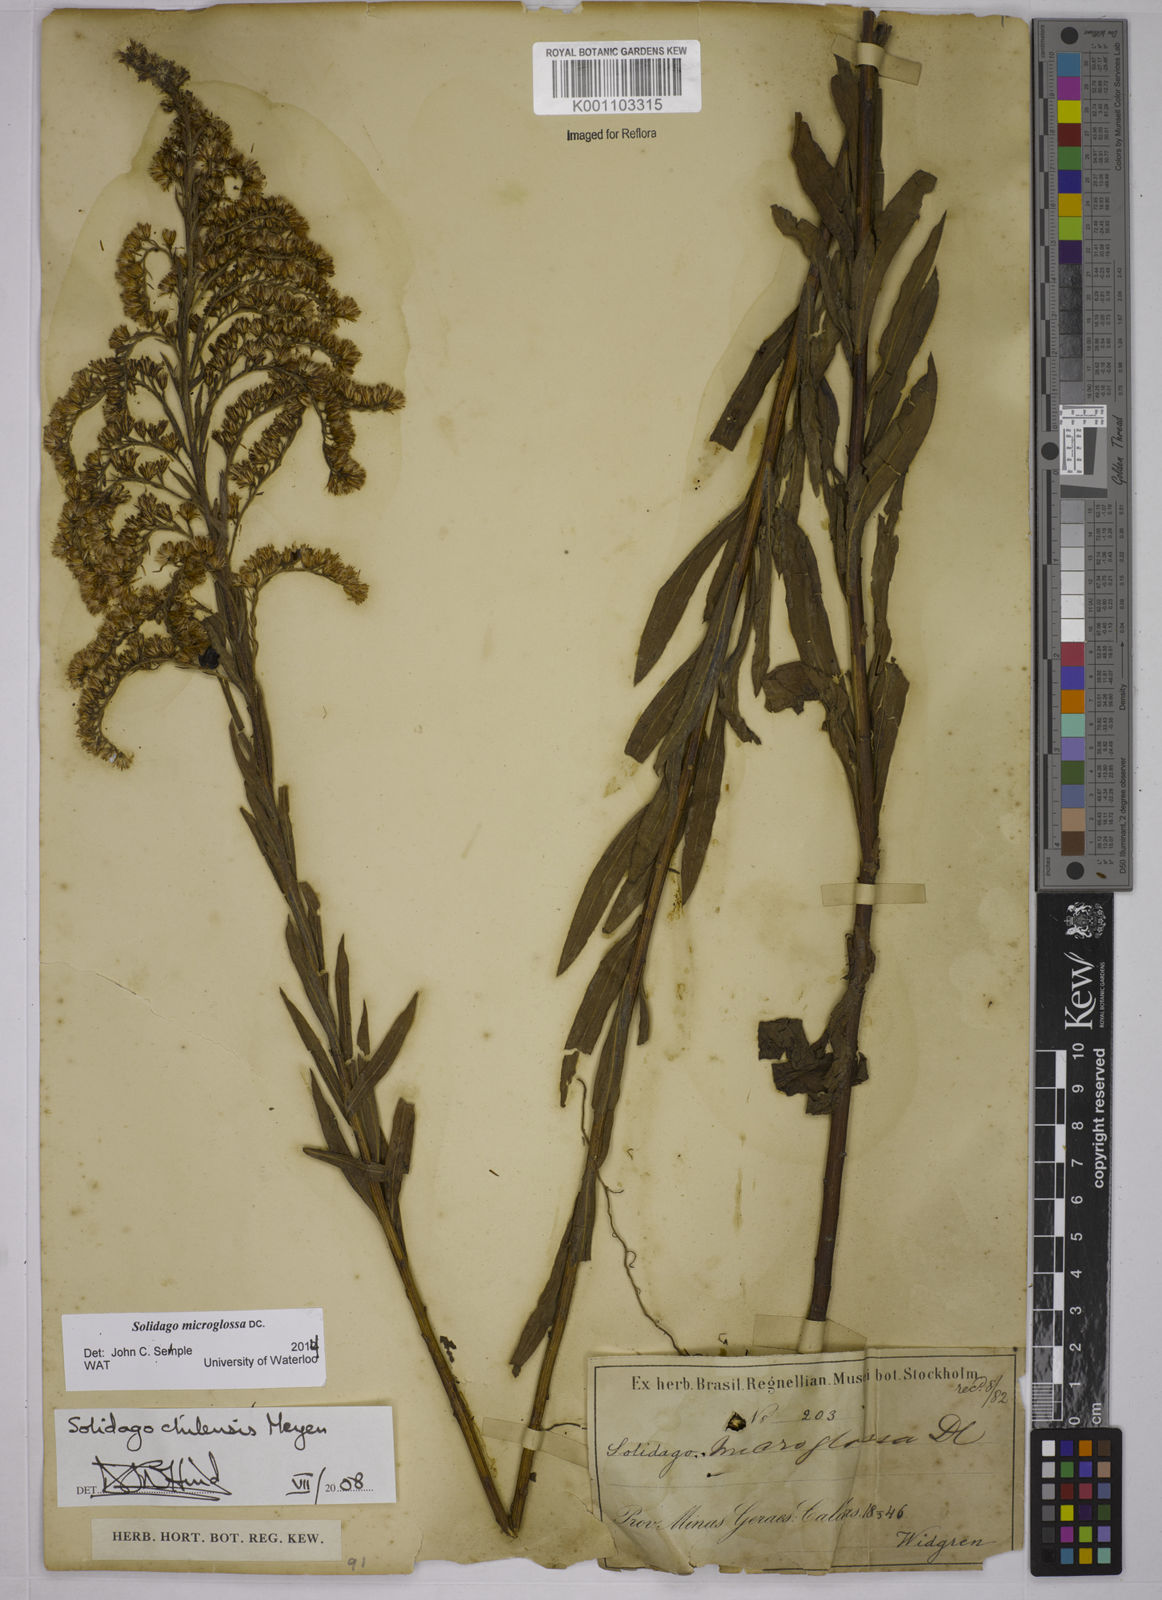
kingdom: Plantae
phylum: Tracheophyta
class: Magnoliopsida
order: Asterales
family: Asteraceae
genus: Solidago
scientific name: Solidago chilensis
